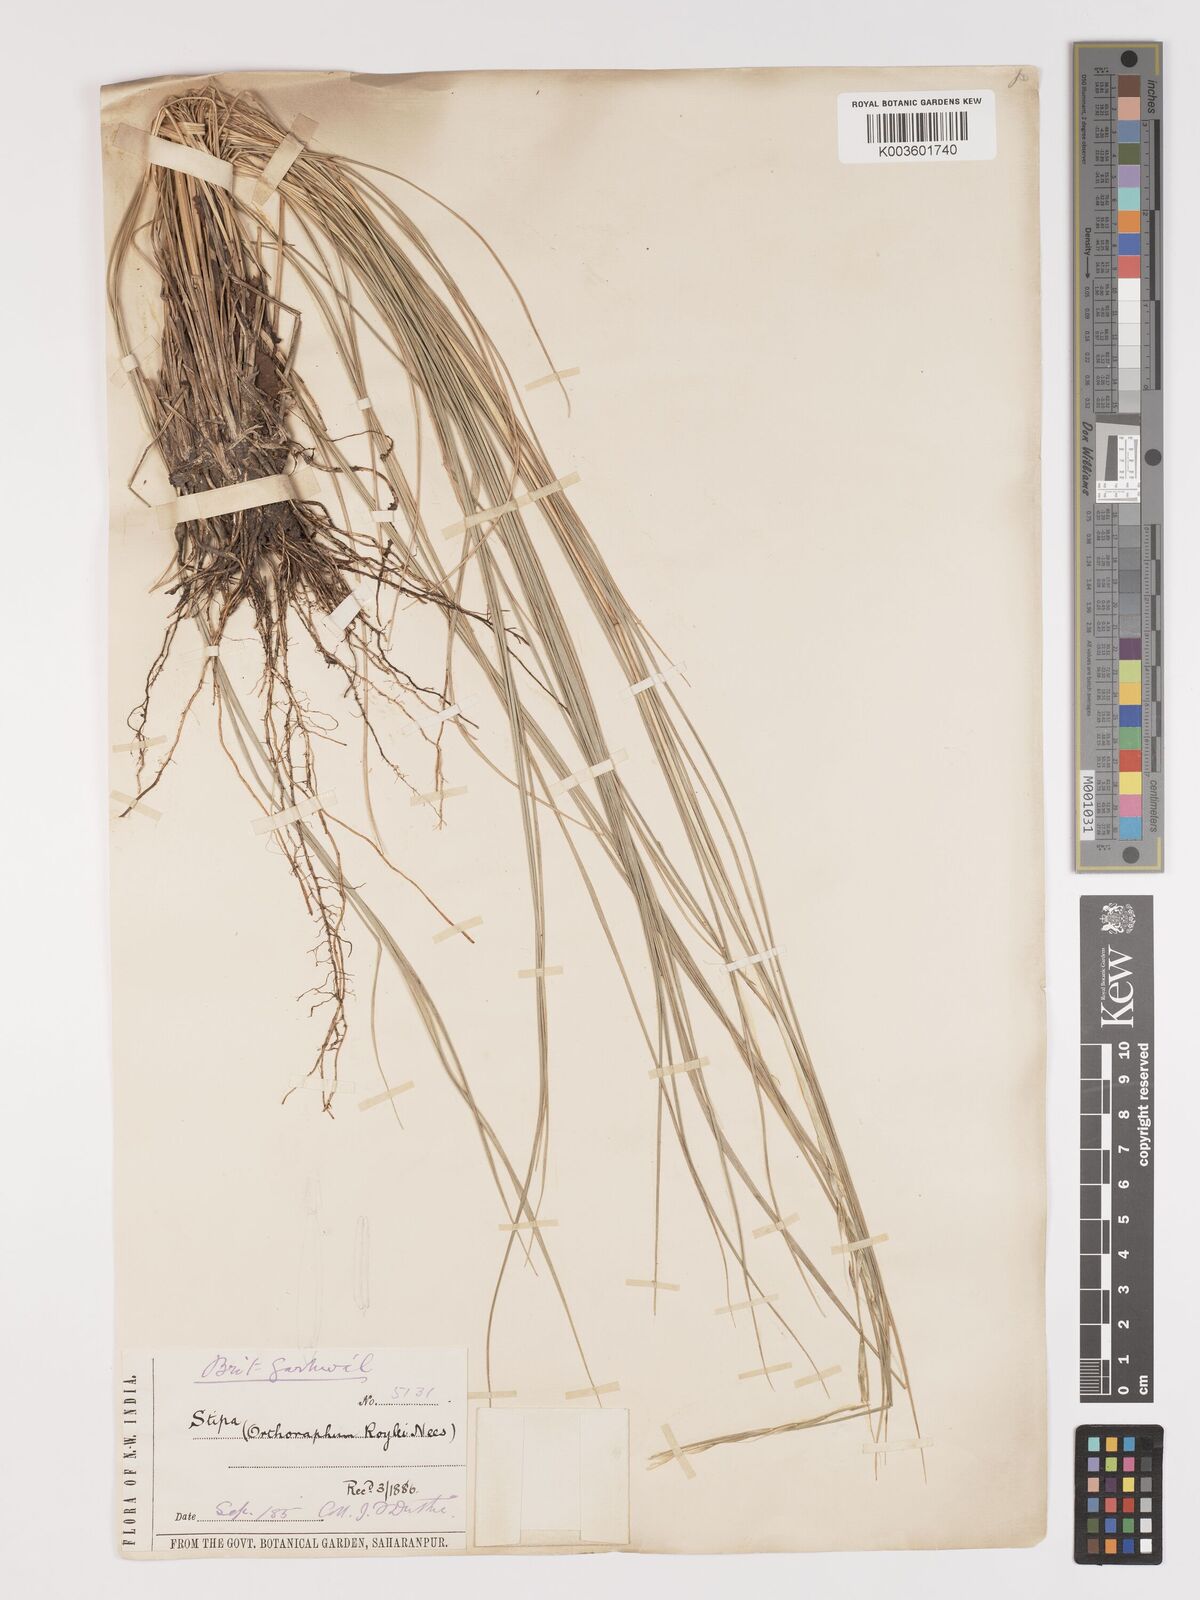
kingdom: Plantae
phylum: Tracheophyta
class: Liliopsida
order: Poales
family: Poaceae
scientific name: Poaceae
